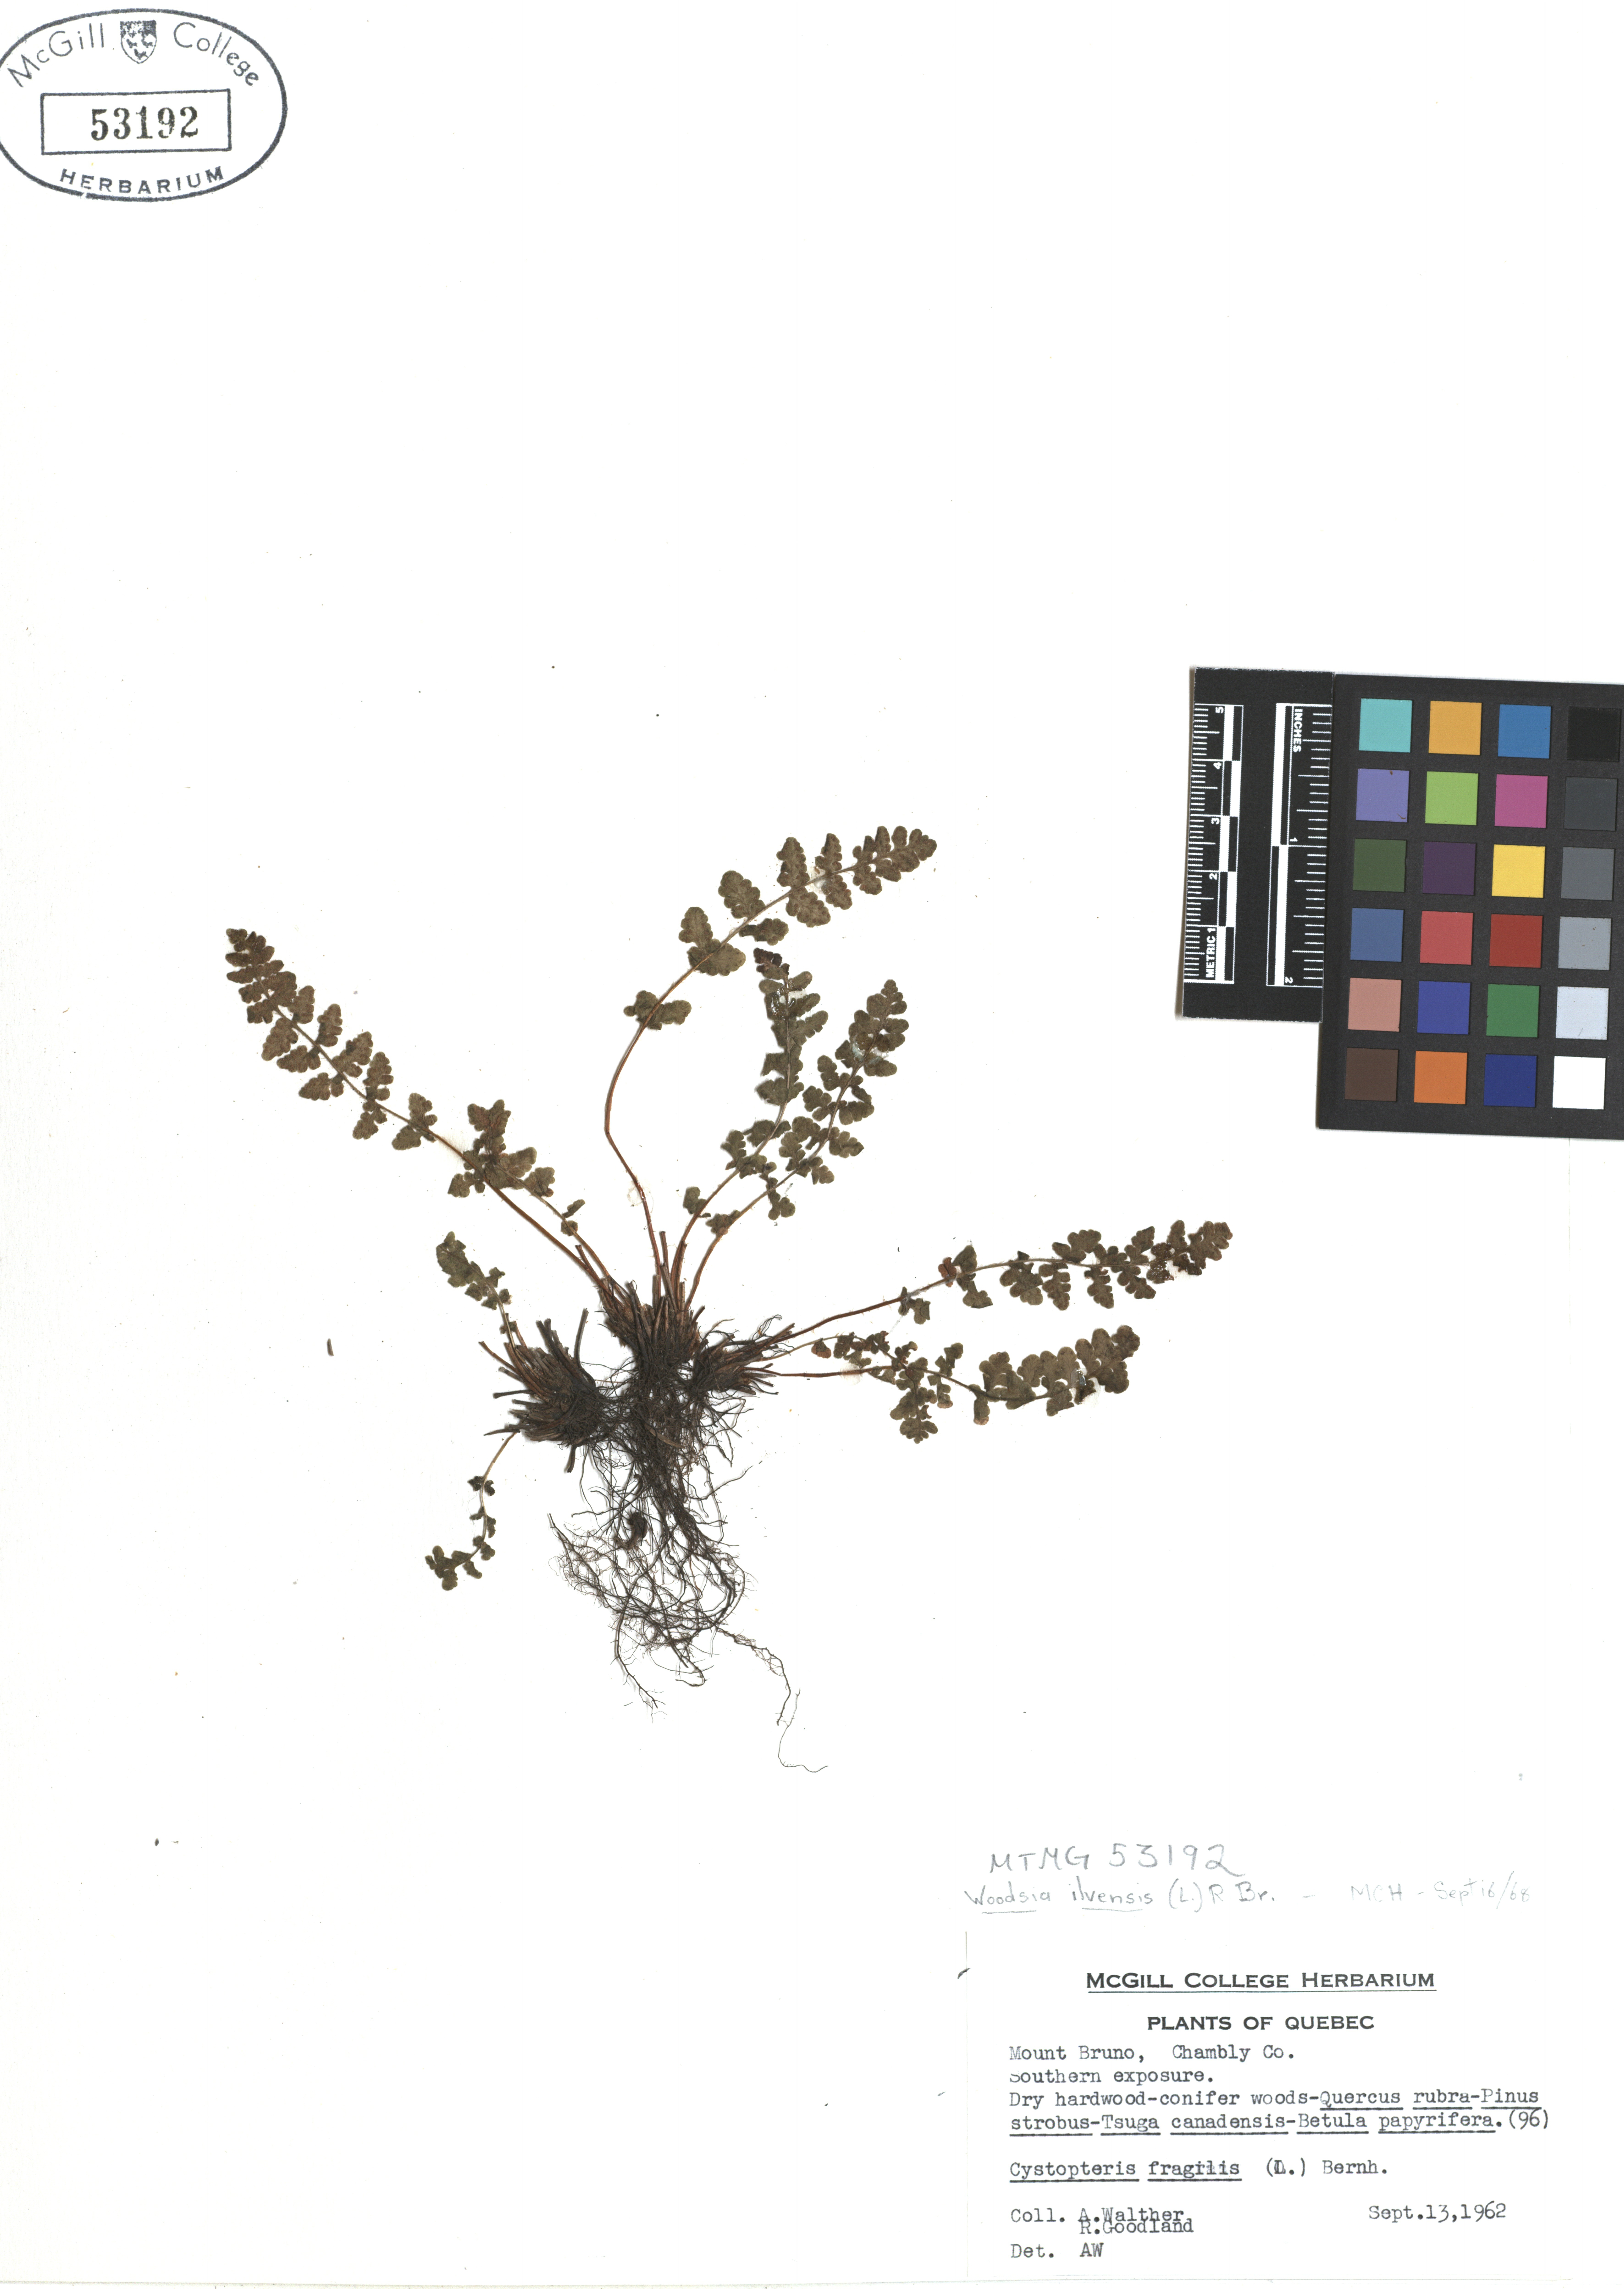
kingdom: Plantae
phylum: Tracheophyta
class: Polypodiopsida
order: Polypodiales
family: Woodsiaceae
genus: Woodsia
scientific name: Woodsia ilvensis
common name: Fragrant woodsia
